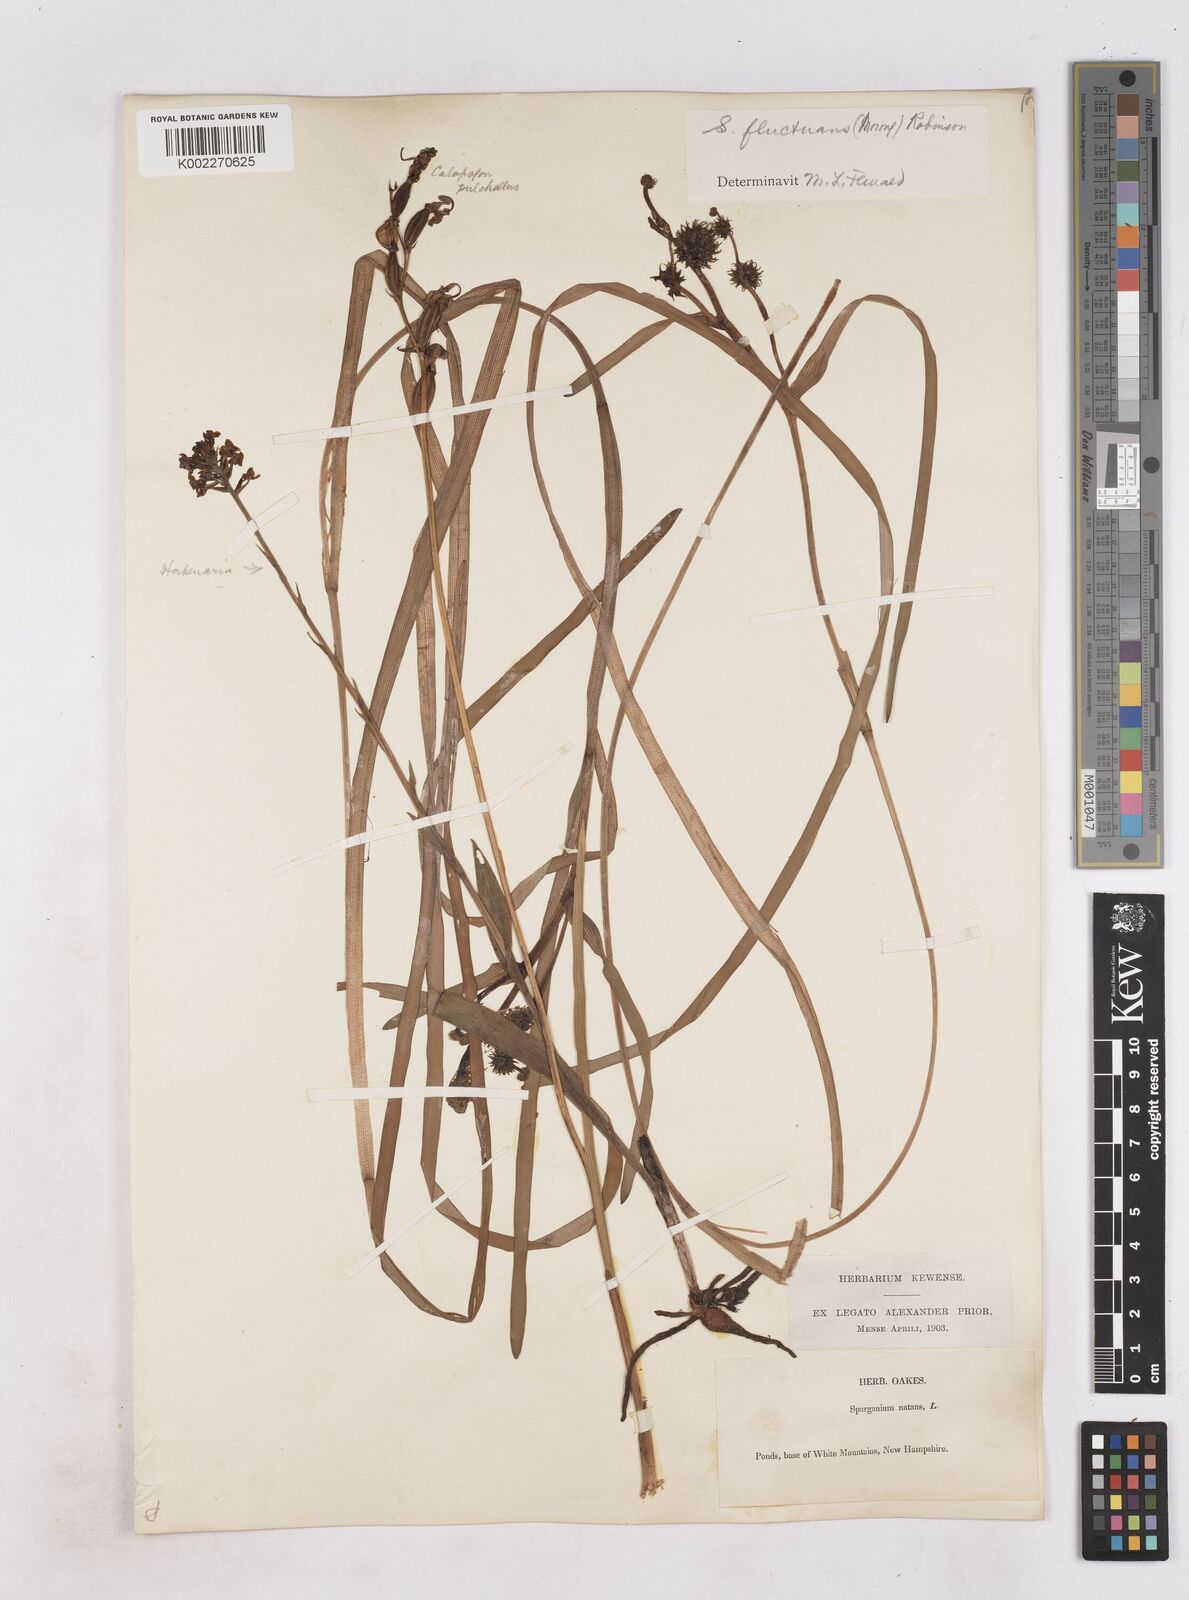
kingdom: Plantae
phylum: Tracheophyta
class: Liliopsida
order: Poales
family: Typhaceae
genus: Sparganium
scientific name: Sparganium fluctuans
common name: Floating burreed
